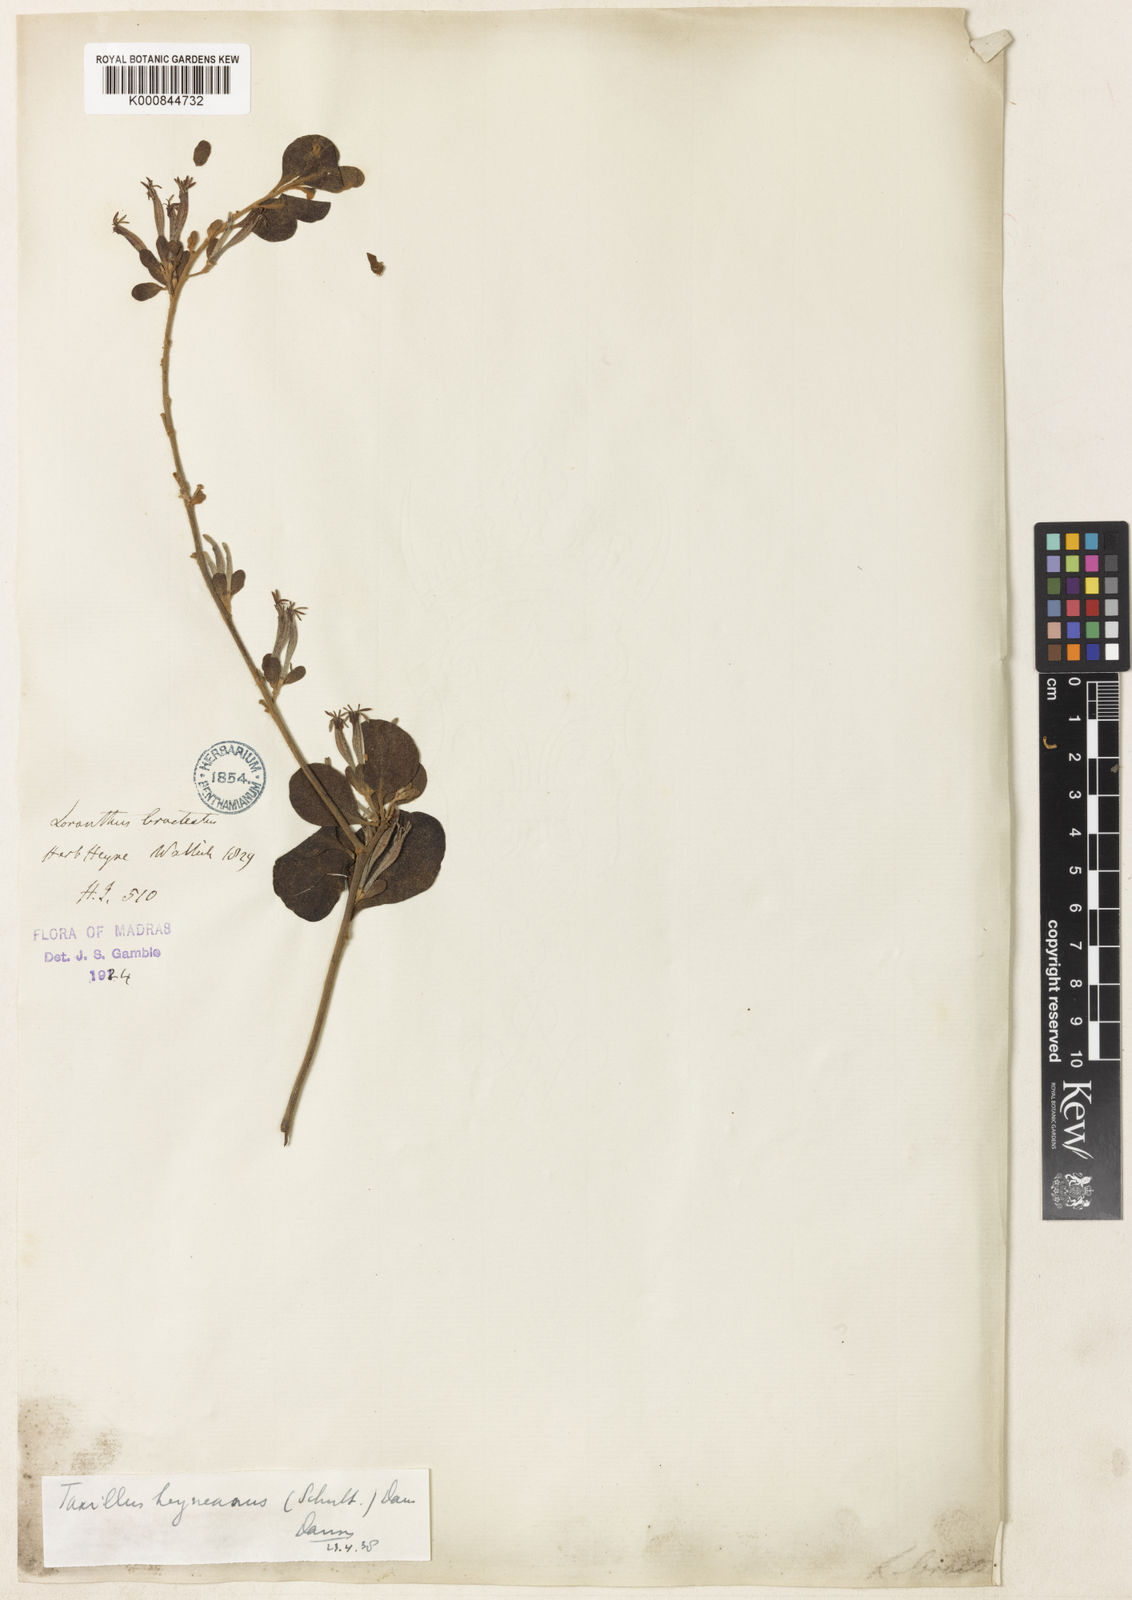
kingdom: Plantae
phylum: Tracheophyta
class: Magnoliopsida
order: Santalales
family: Loranthaceae
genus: Taxillus
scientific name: Taxillus heyneanus
